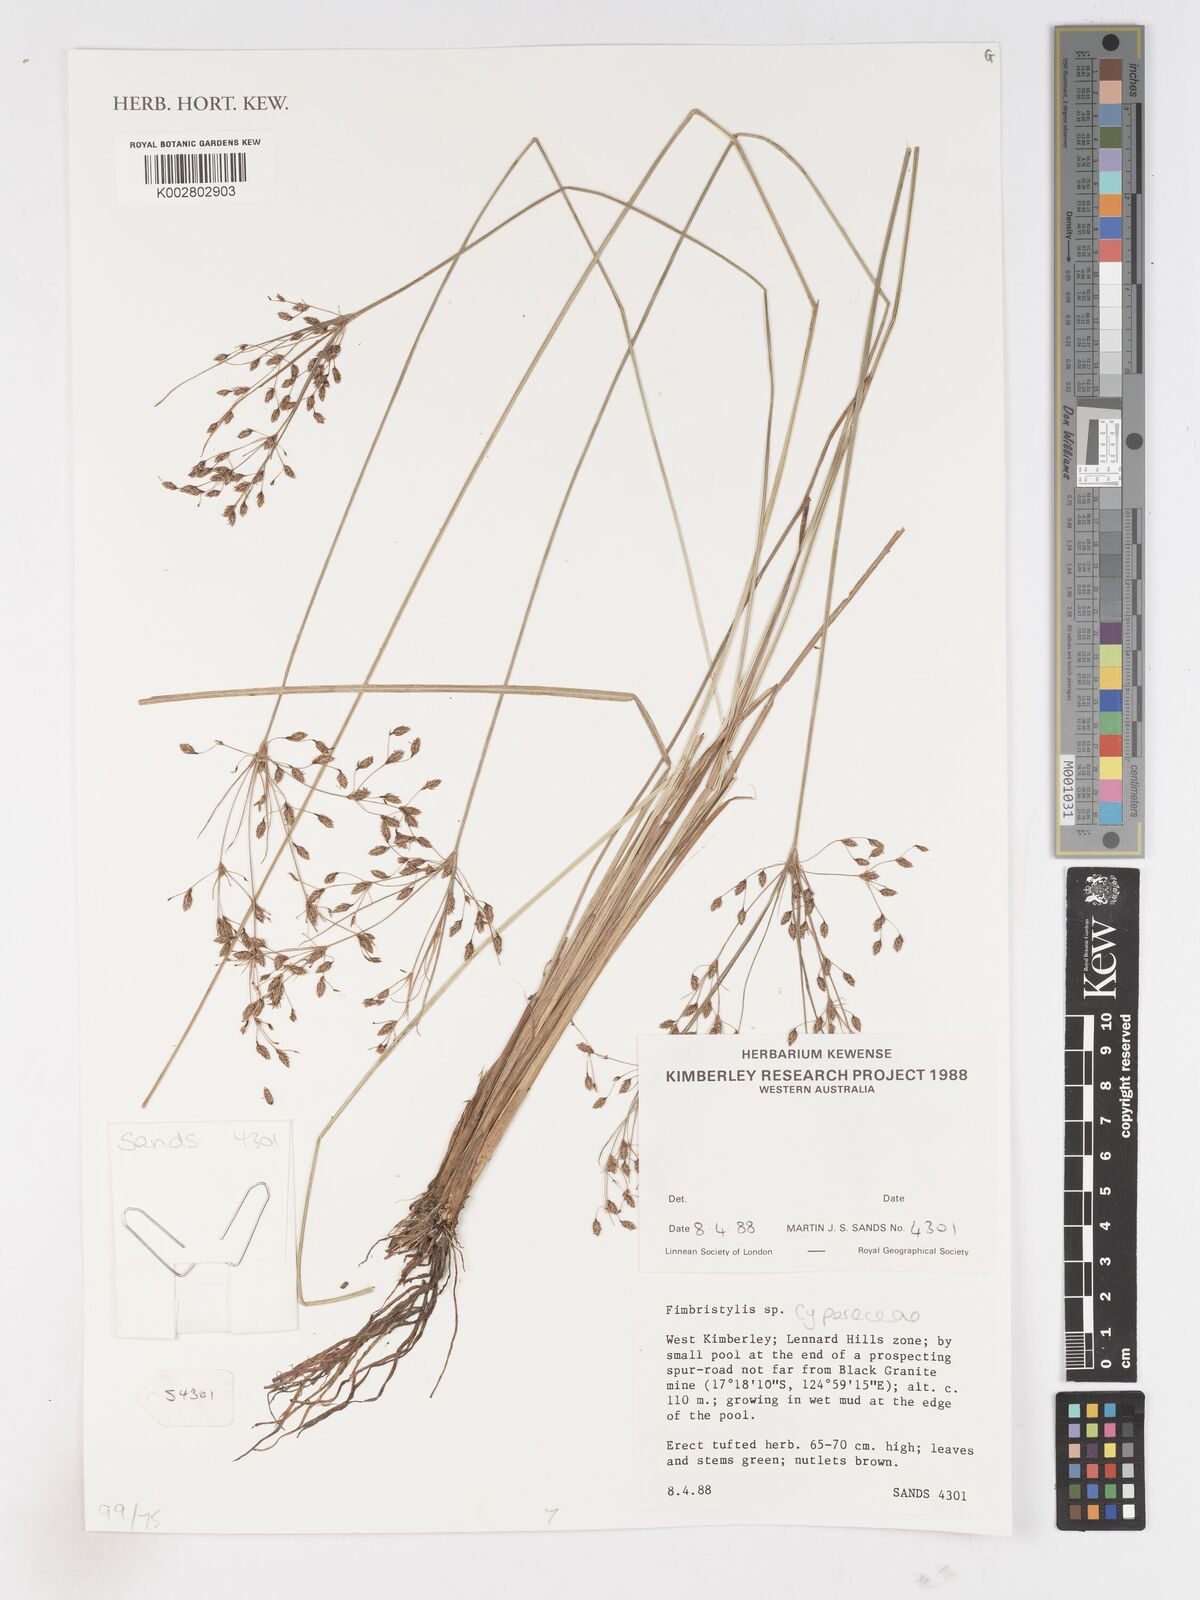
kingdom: Plantae
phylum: Tracheophyta
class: Liliopsida
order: Poales
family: Cyperaceae
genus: Fimbristylis
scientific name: Fimbristylis
